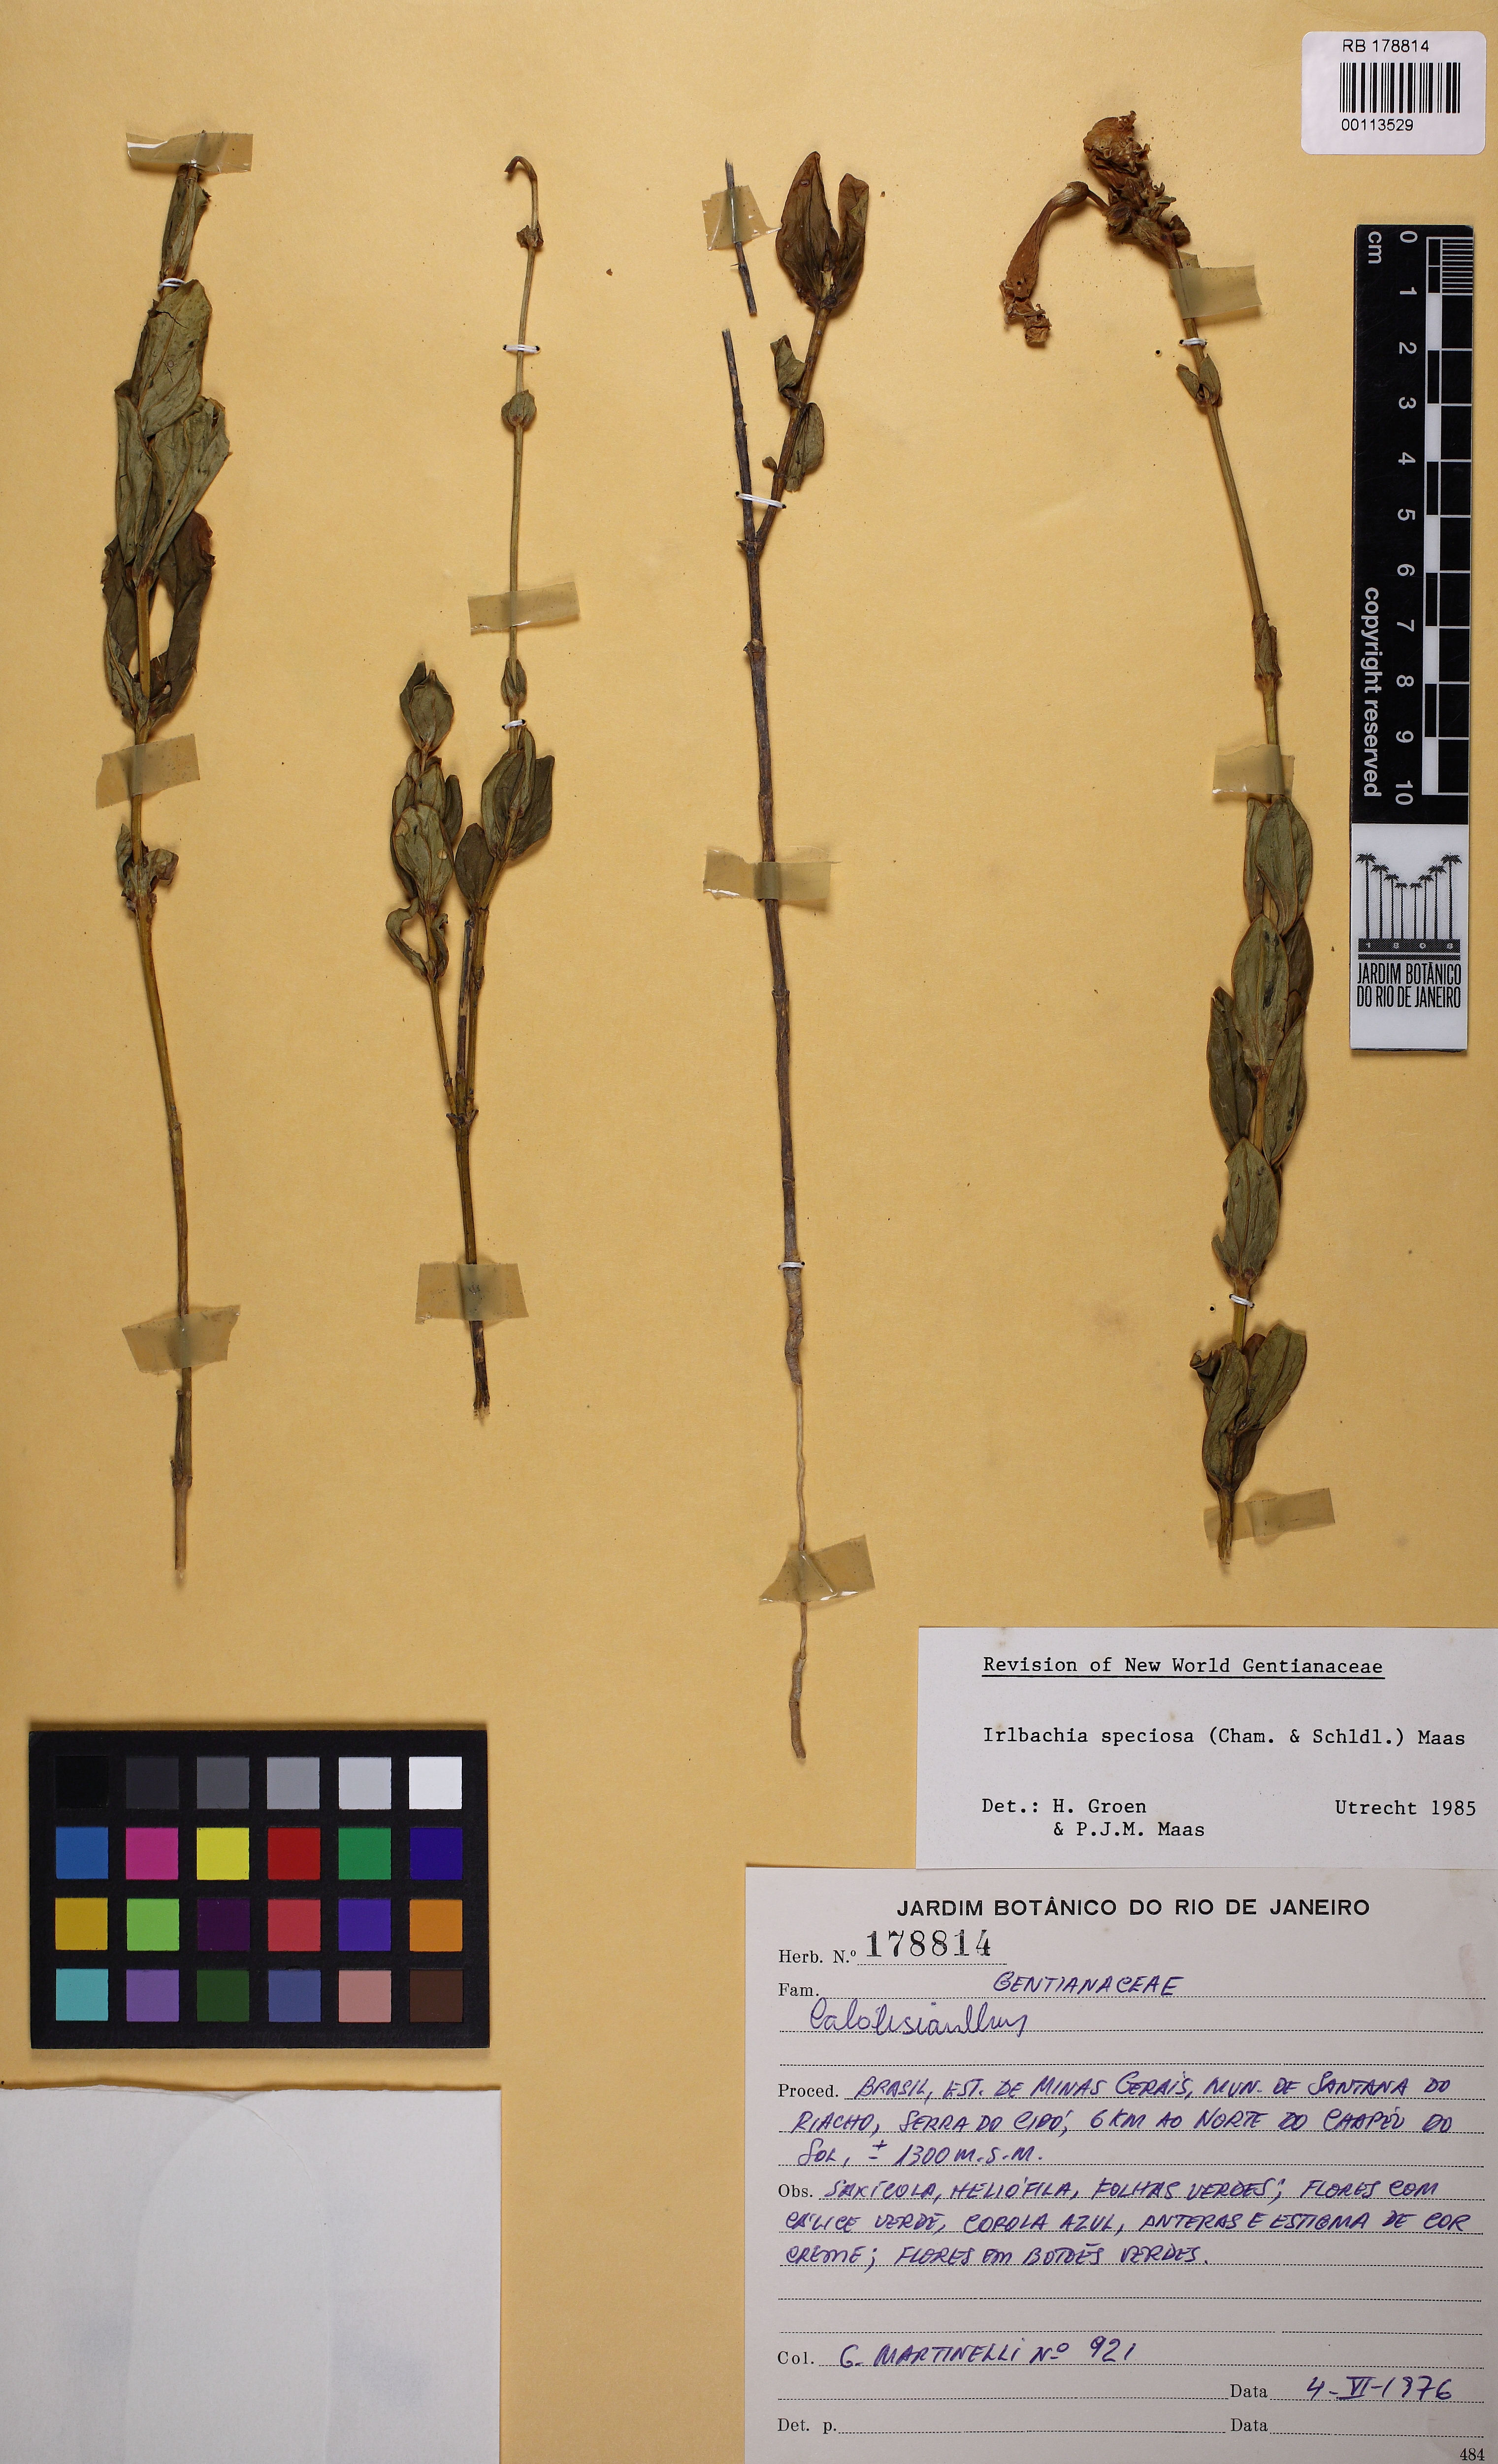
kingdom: Plantae
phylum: Tracheophyta
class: Magnoliopsida
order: Gentianales
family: Gentianaceae
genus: Calolisianthus
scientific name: Calolisianthus speciosus
